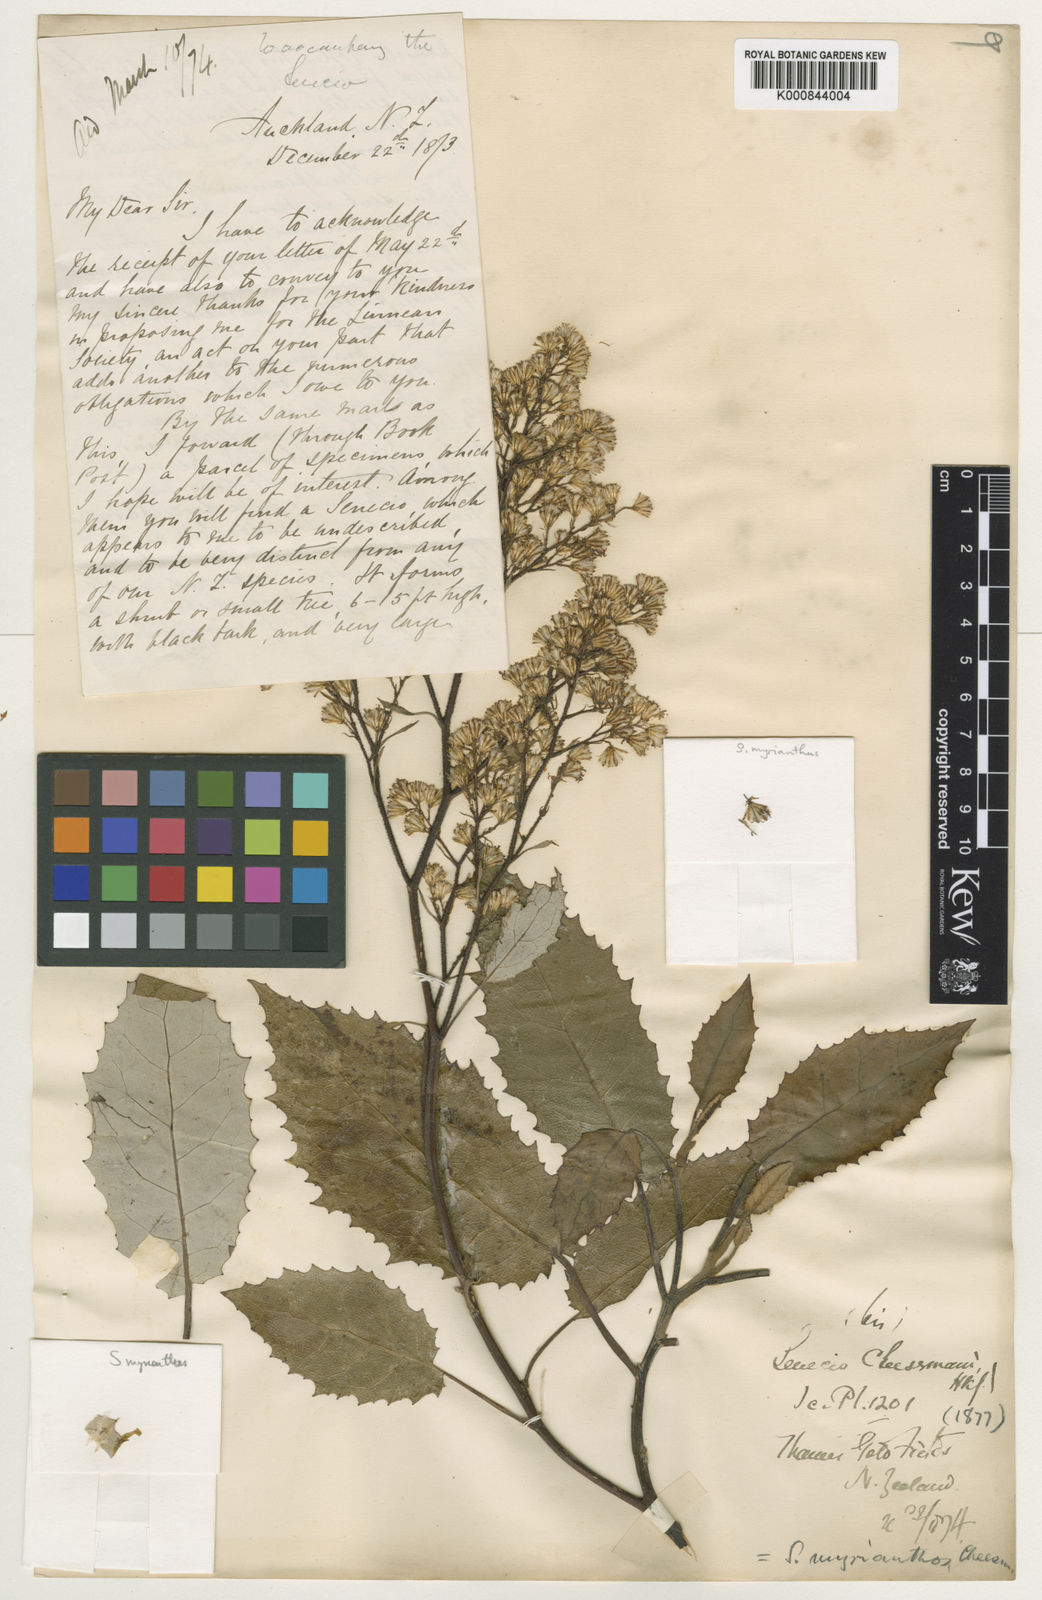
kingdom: Plantae
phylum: Tracheophyta
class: Magnoliopsida
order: Asterales
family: Asteraceae
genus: Brachyglottis
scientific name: Brachyglottis myrianthos
